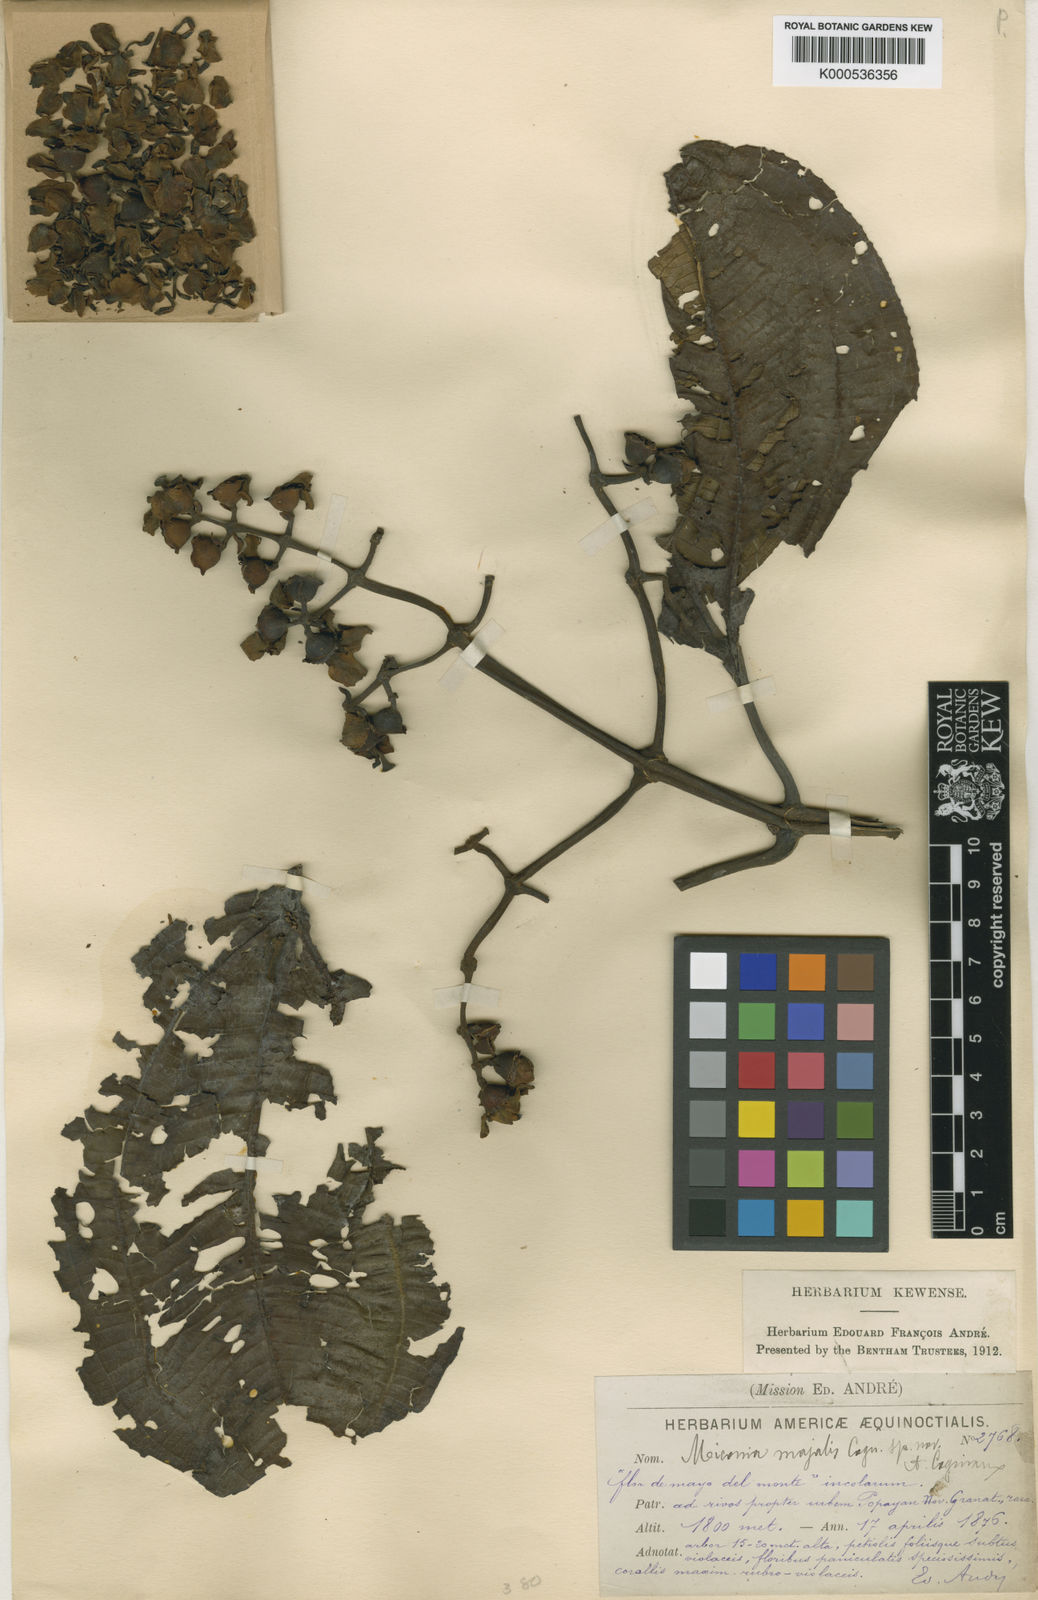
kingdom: Plantae
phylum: Tracheophyta
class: Magnoliopsida
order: Myrtales
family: Melastomataceae
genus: Miconia
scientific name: Miconia majalis
